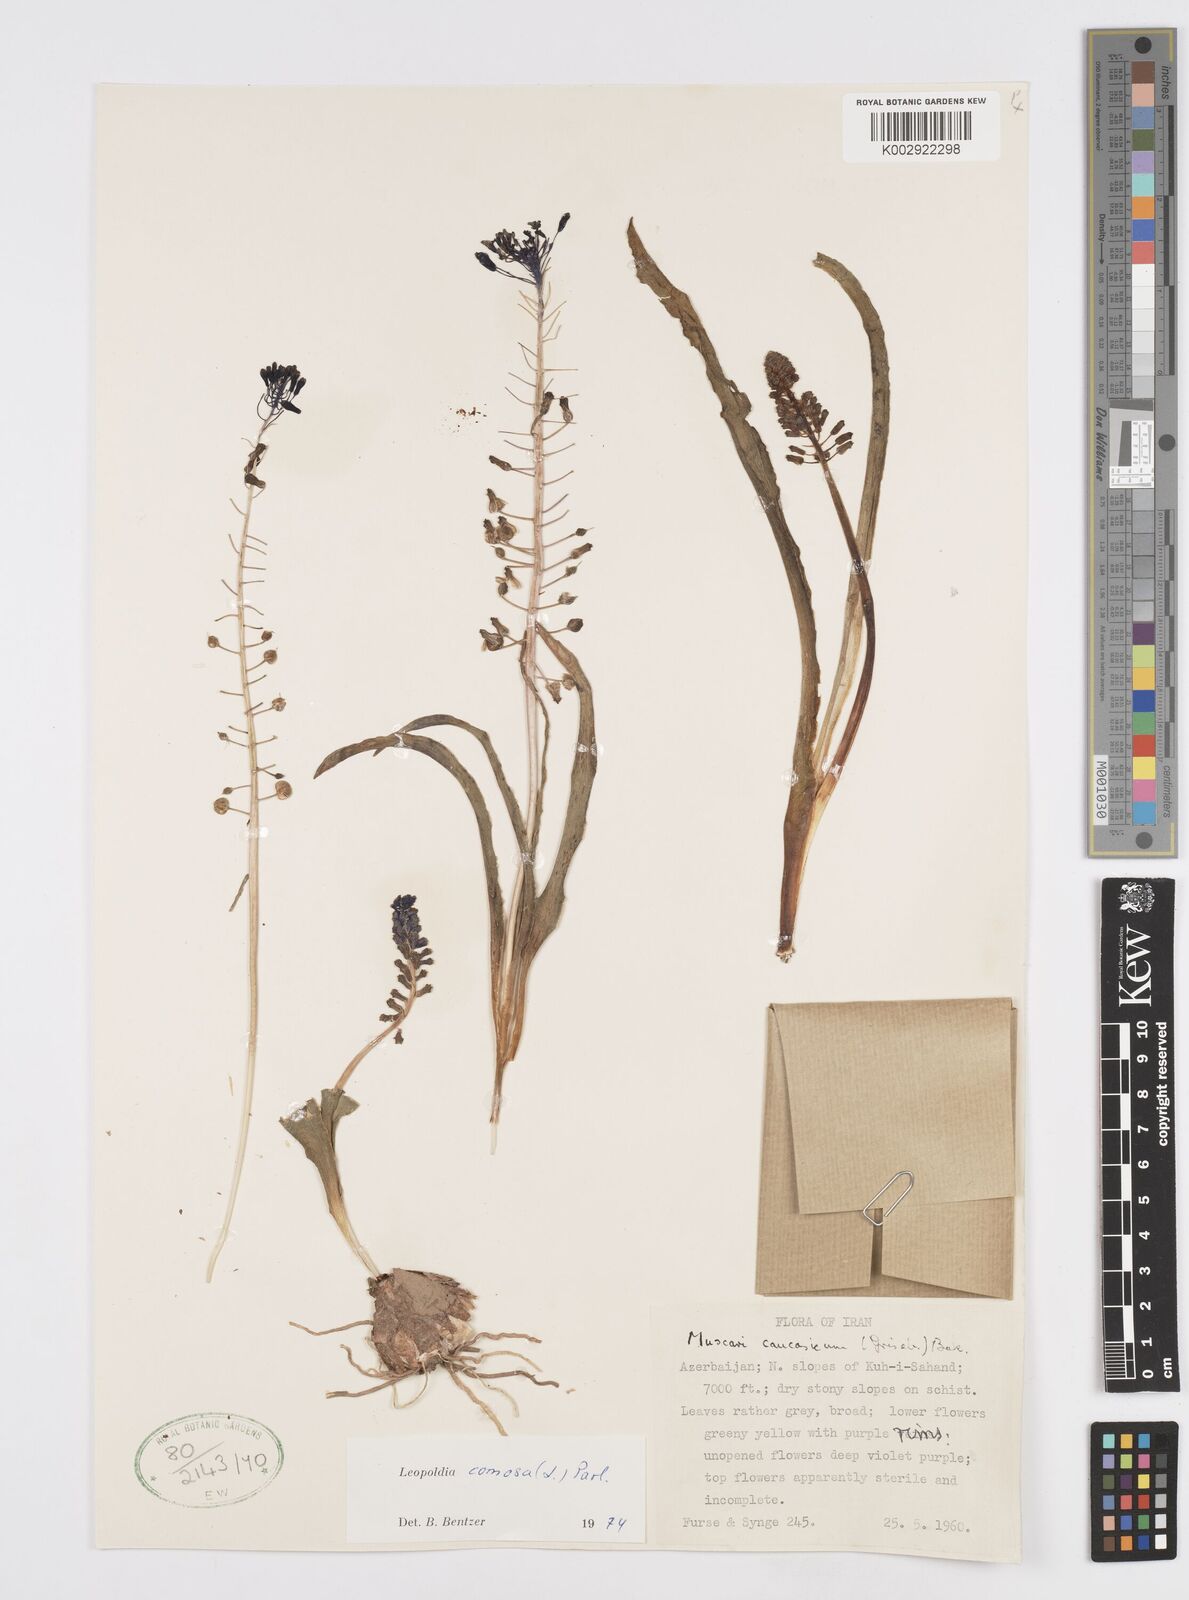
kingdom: Plantae
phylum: Tracheophyta
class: Liliopsida
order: Asparagales
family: Asparagaceae
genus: Muscari
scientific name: Muscari comosum
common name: Tassel hyacinth
